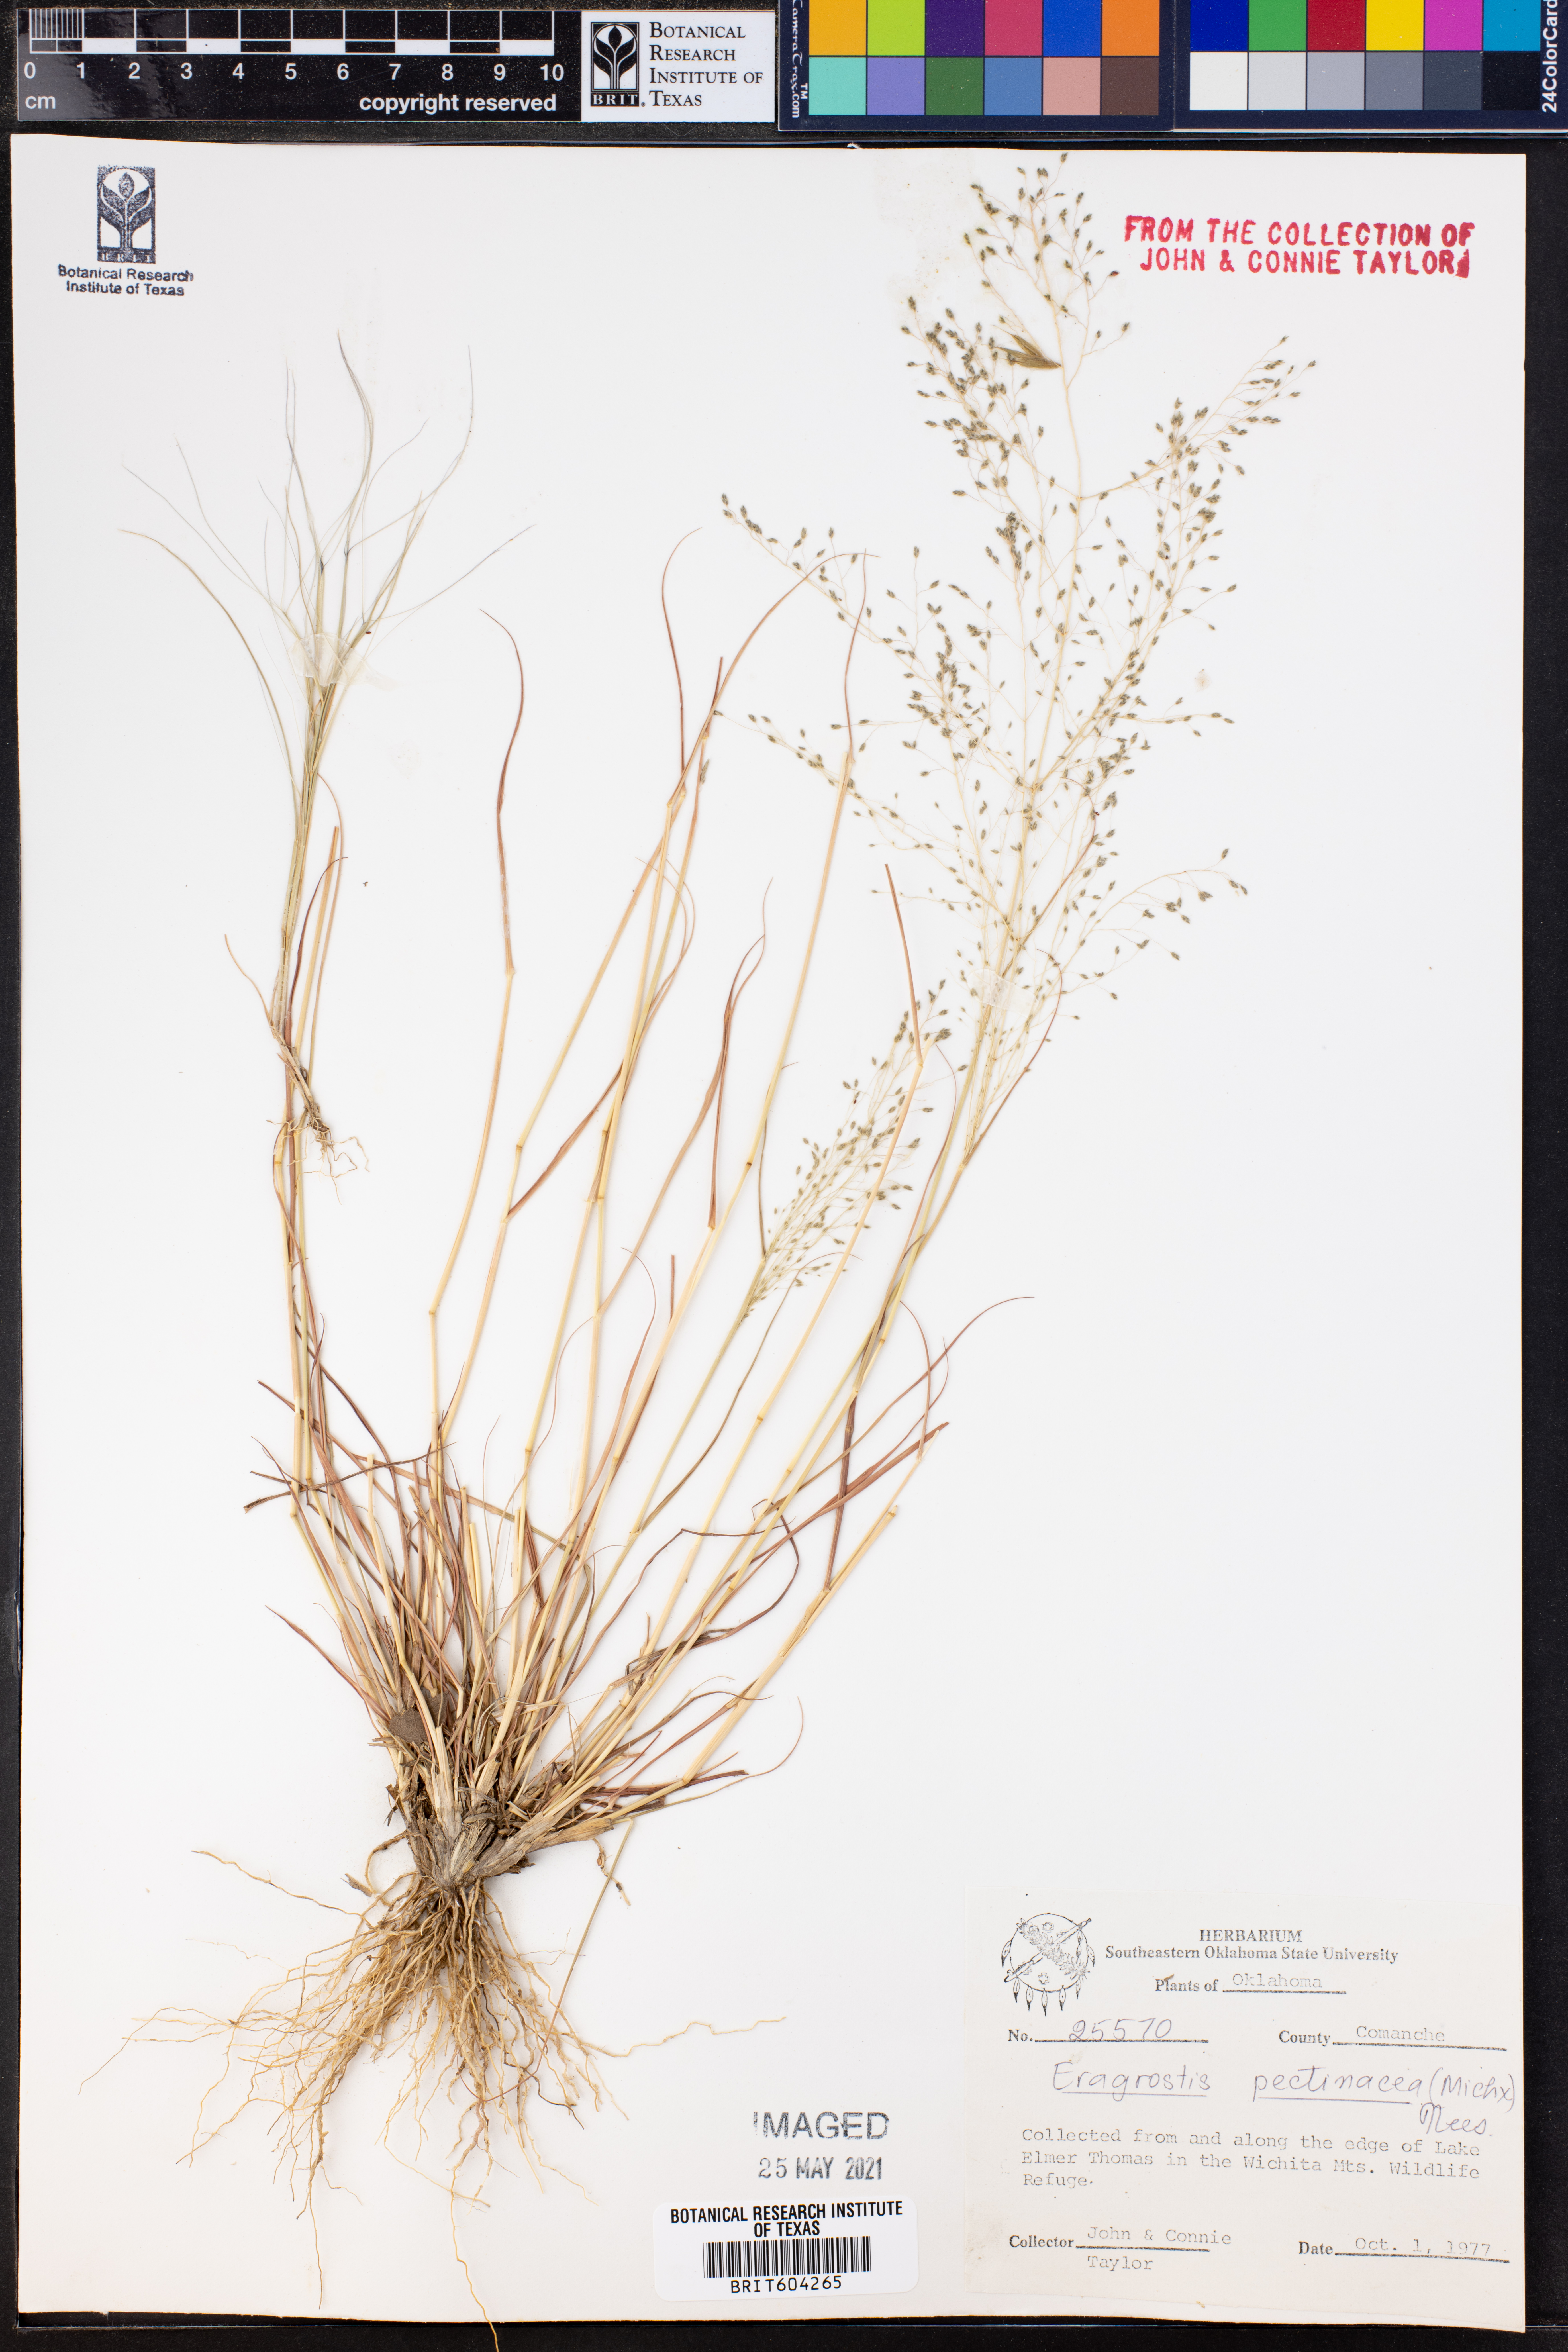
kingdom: Plantae
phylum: Tracheophyta
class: Liliopsida
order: Poales
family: Poaceae
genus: Eragrostis
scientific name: Eragrostis pectinacea
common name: Tufted lovegrass
